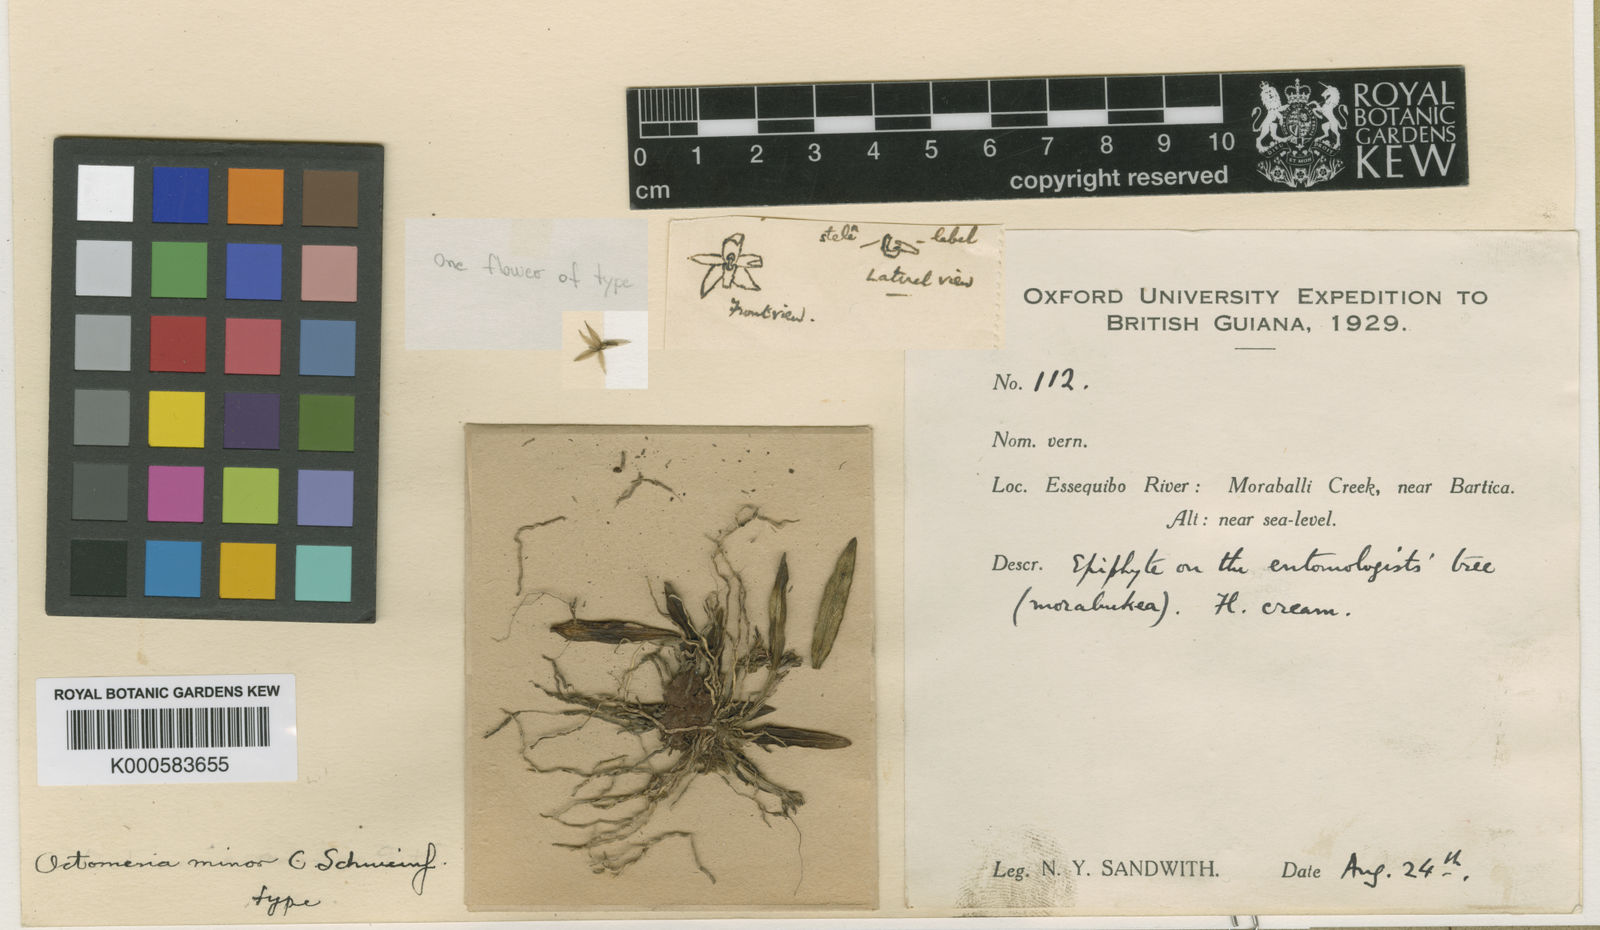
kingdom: Plantae
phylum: Tracheophyta
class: Liliopsida
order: Asparagales
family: Orchidaceae
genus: Octomeria
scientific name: Octomeria minor
